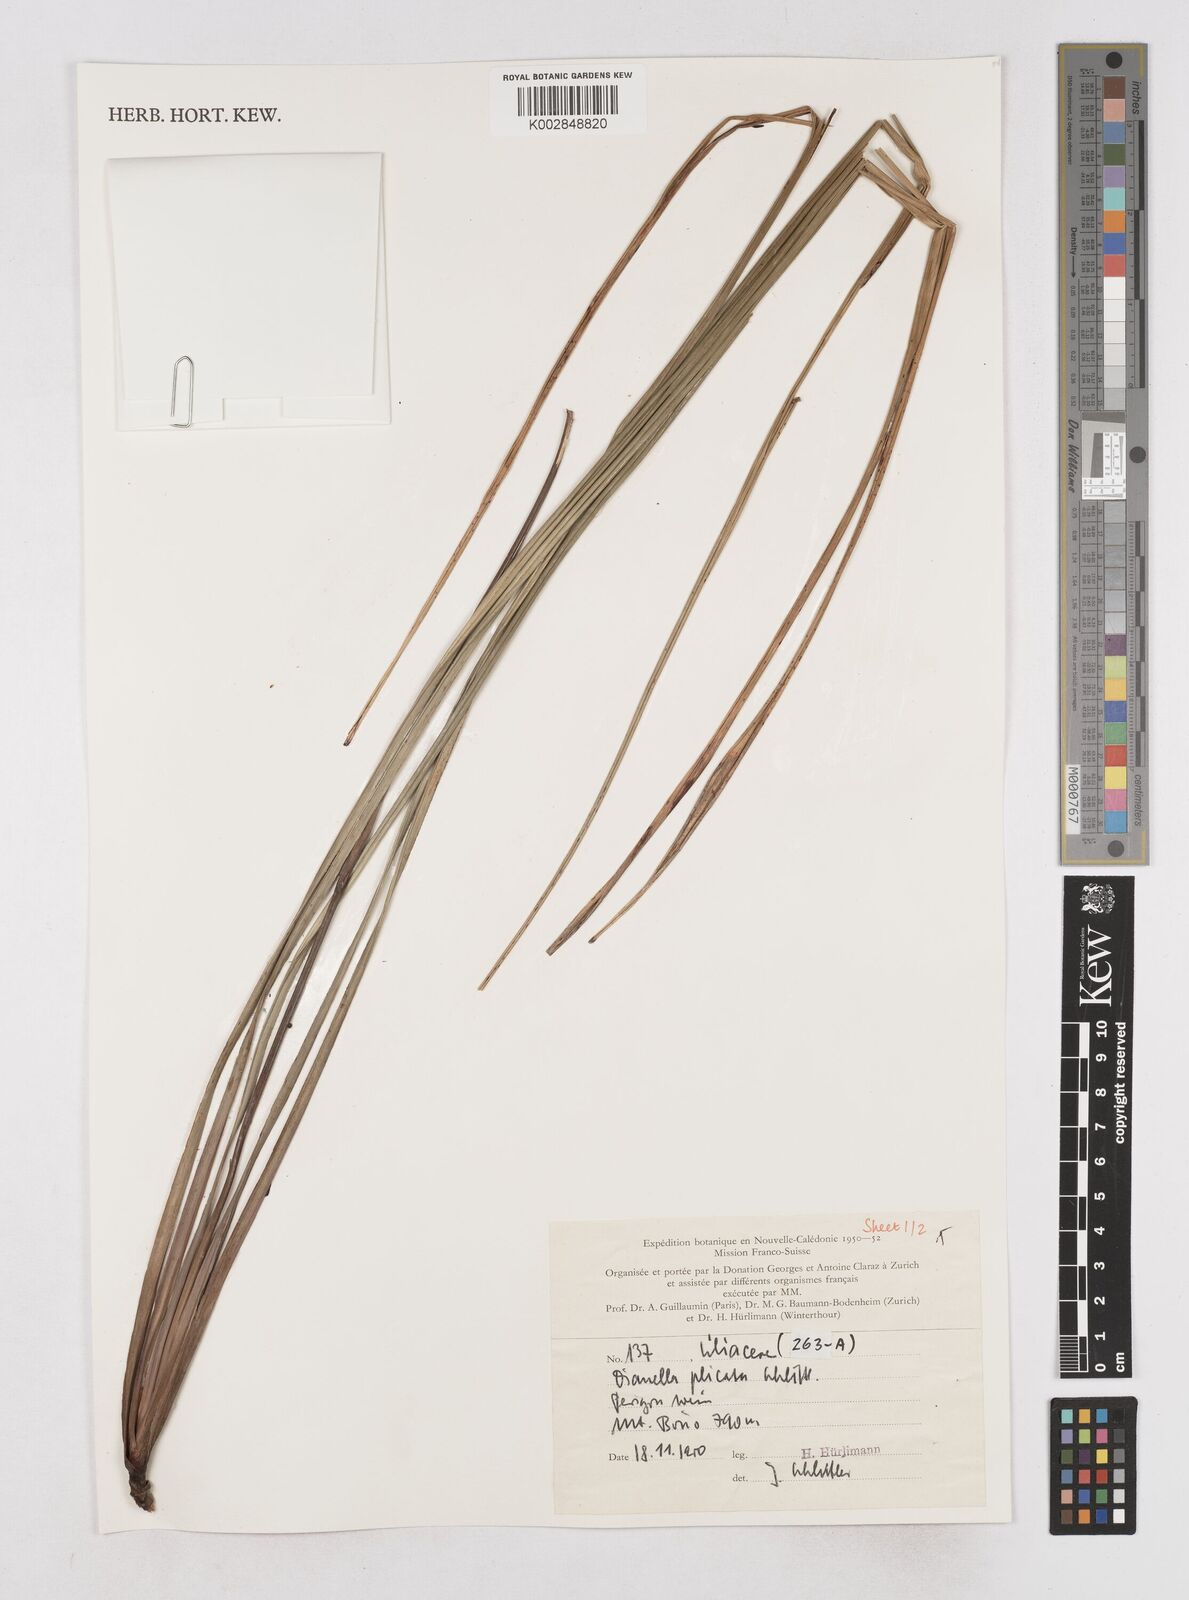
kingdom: Plantae
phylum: Tracheophyta
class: Liliopsida
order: Asparagales
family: Asphodelaceae
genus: Dianella
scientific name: Dianella plicata
